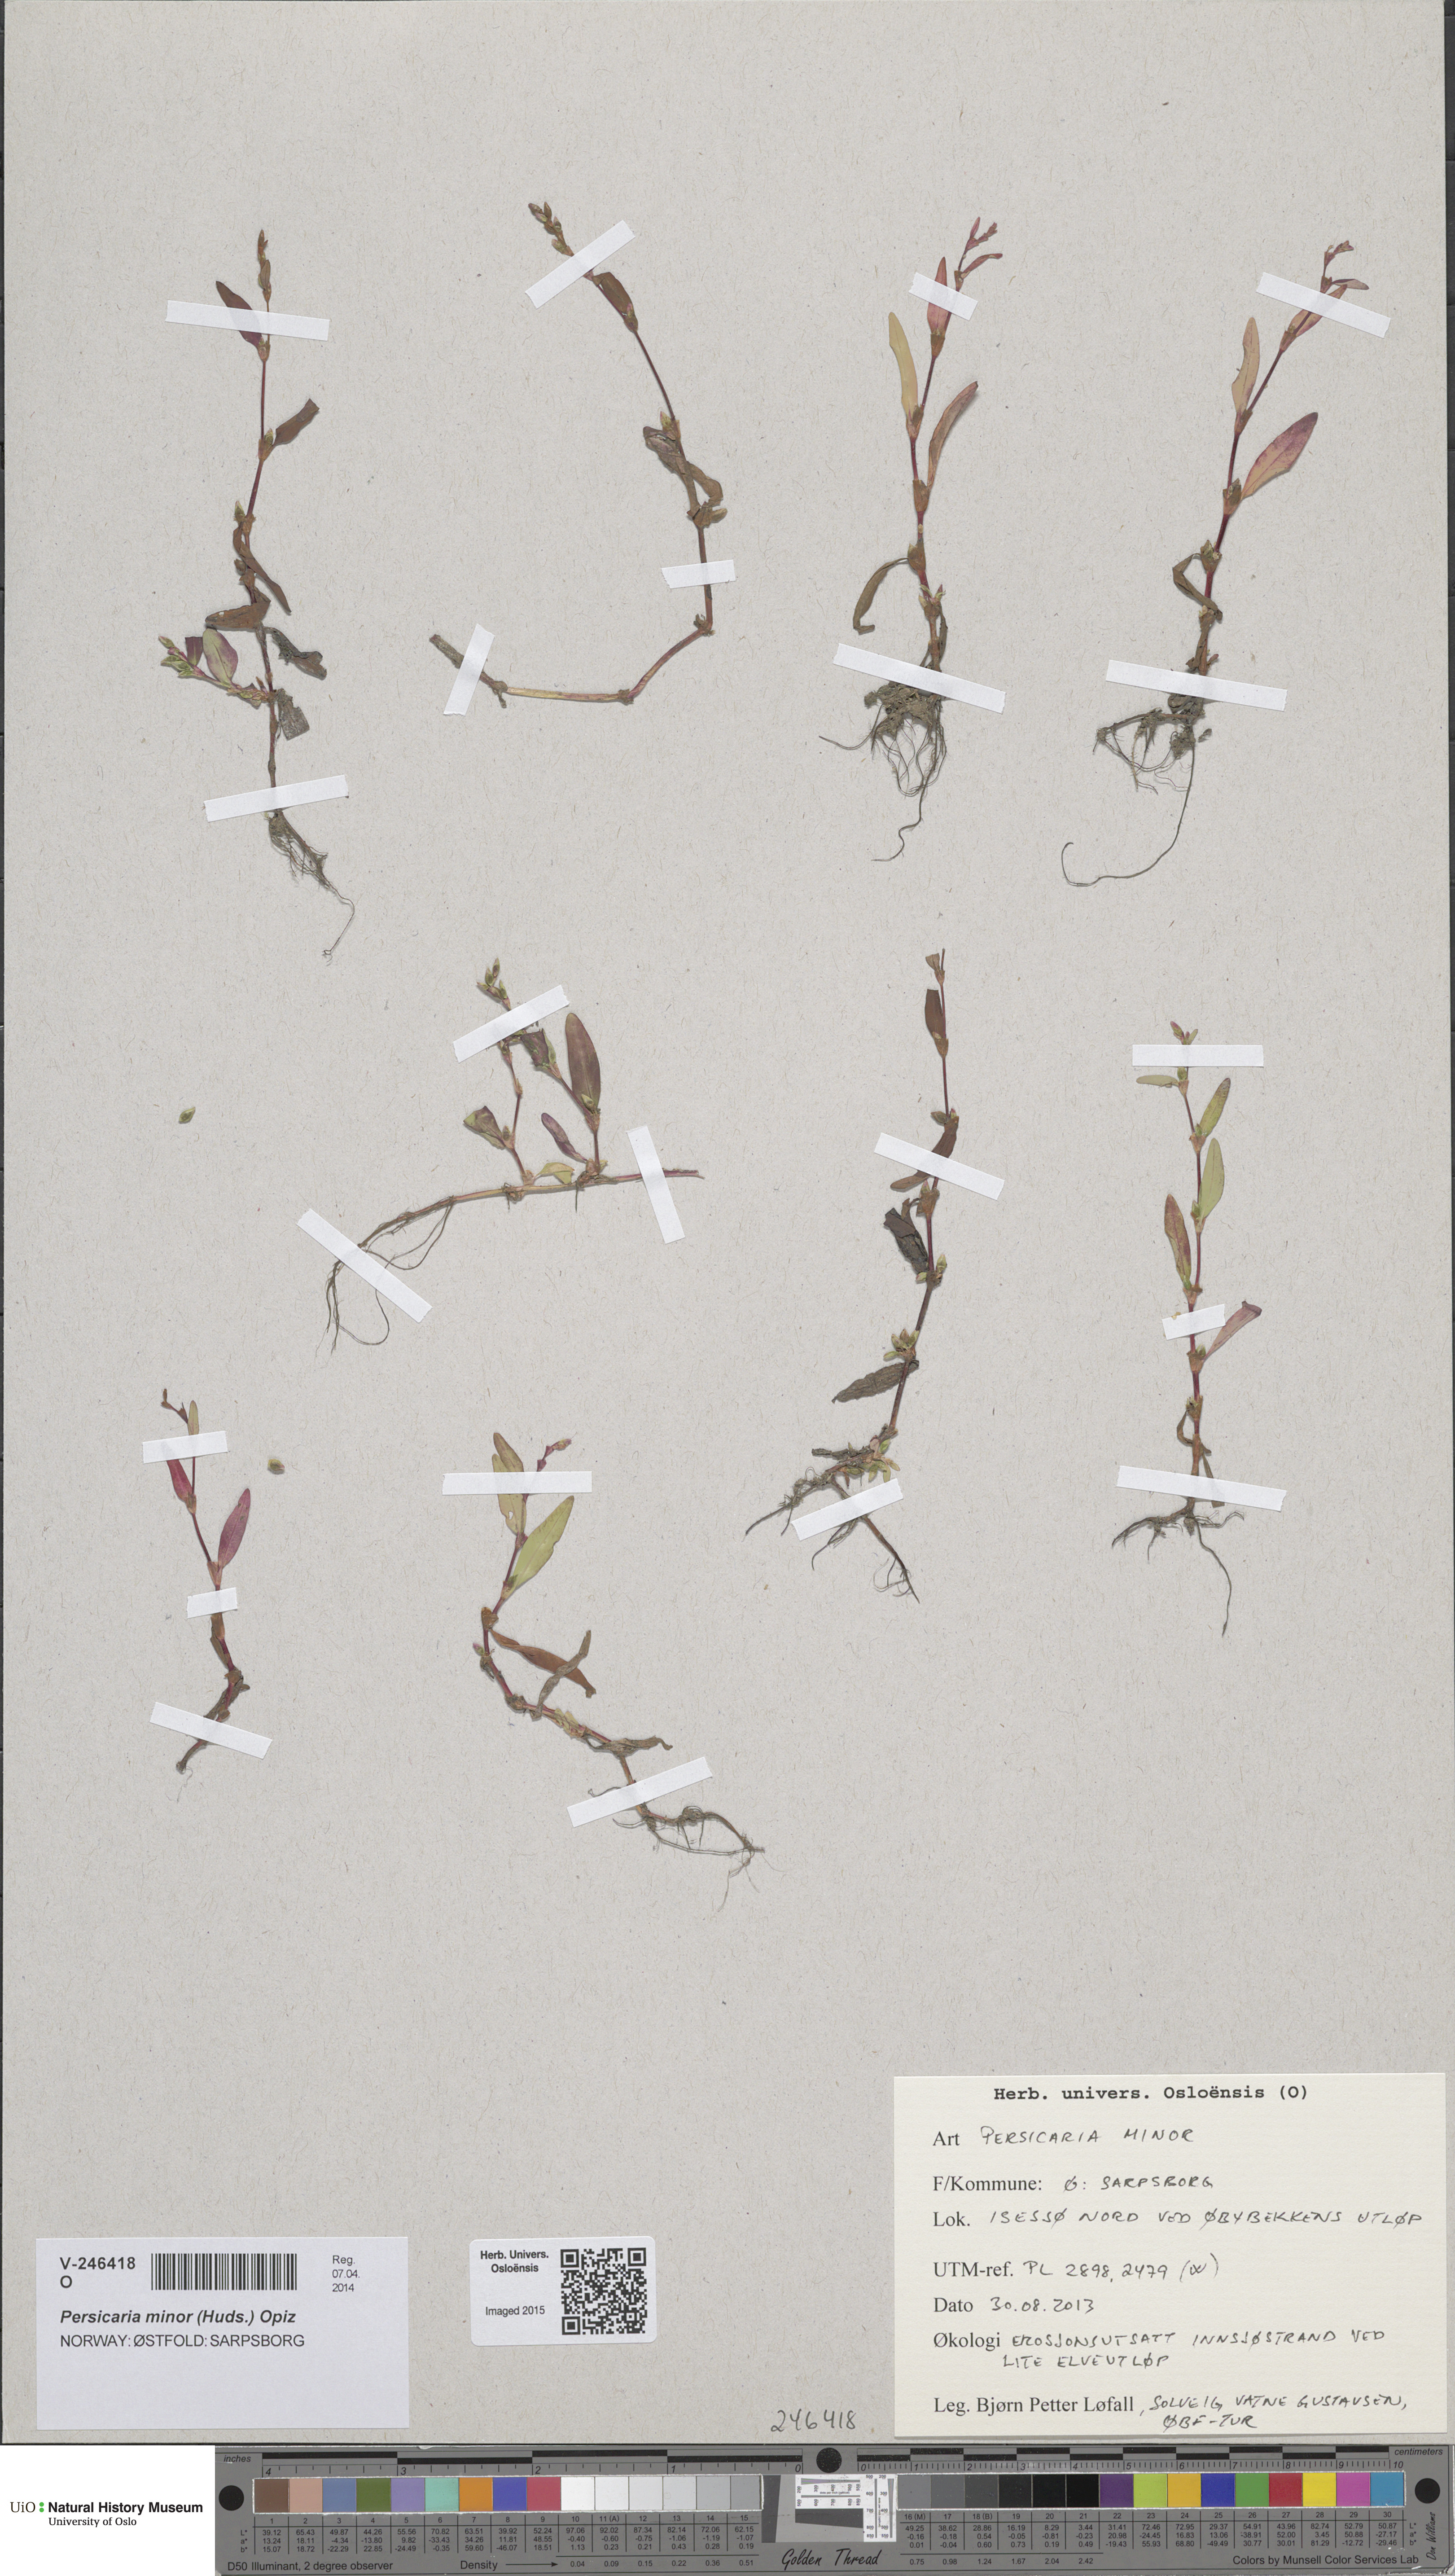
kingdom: Plantae
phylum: Tracheophyta
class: Magnoliopsida
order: Caryophyllales
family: Polygonaceae
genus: Persicaria
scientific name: Persicaria minor
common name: Small water-pepper
